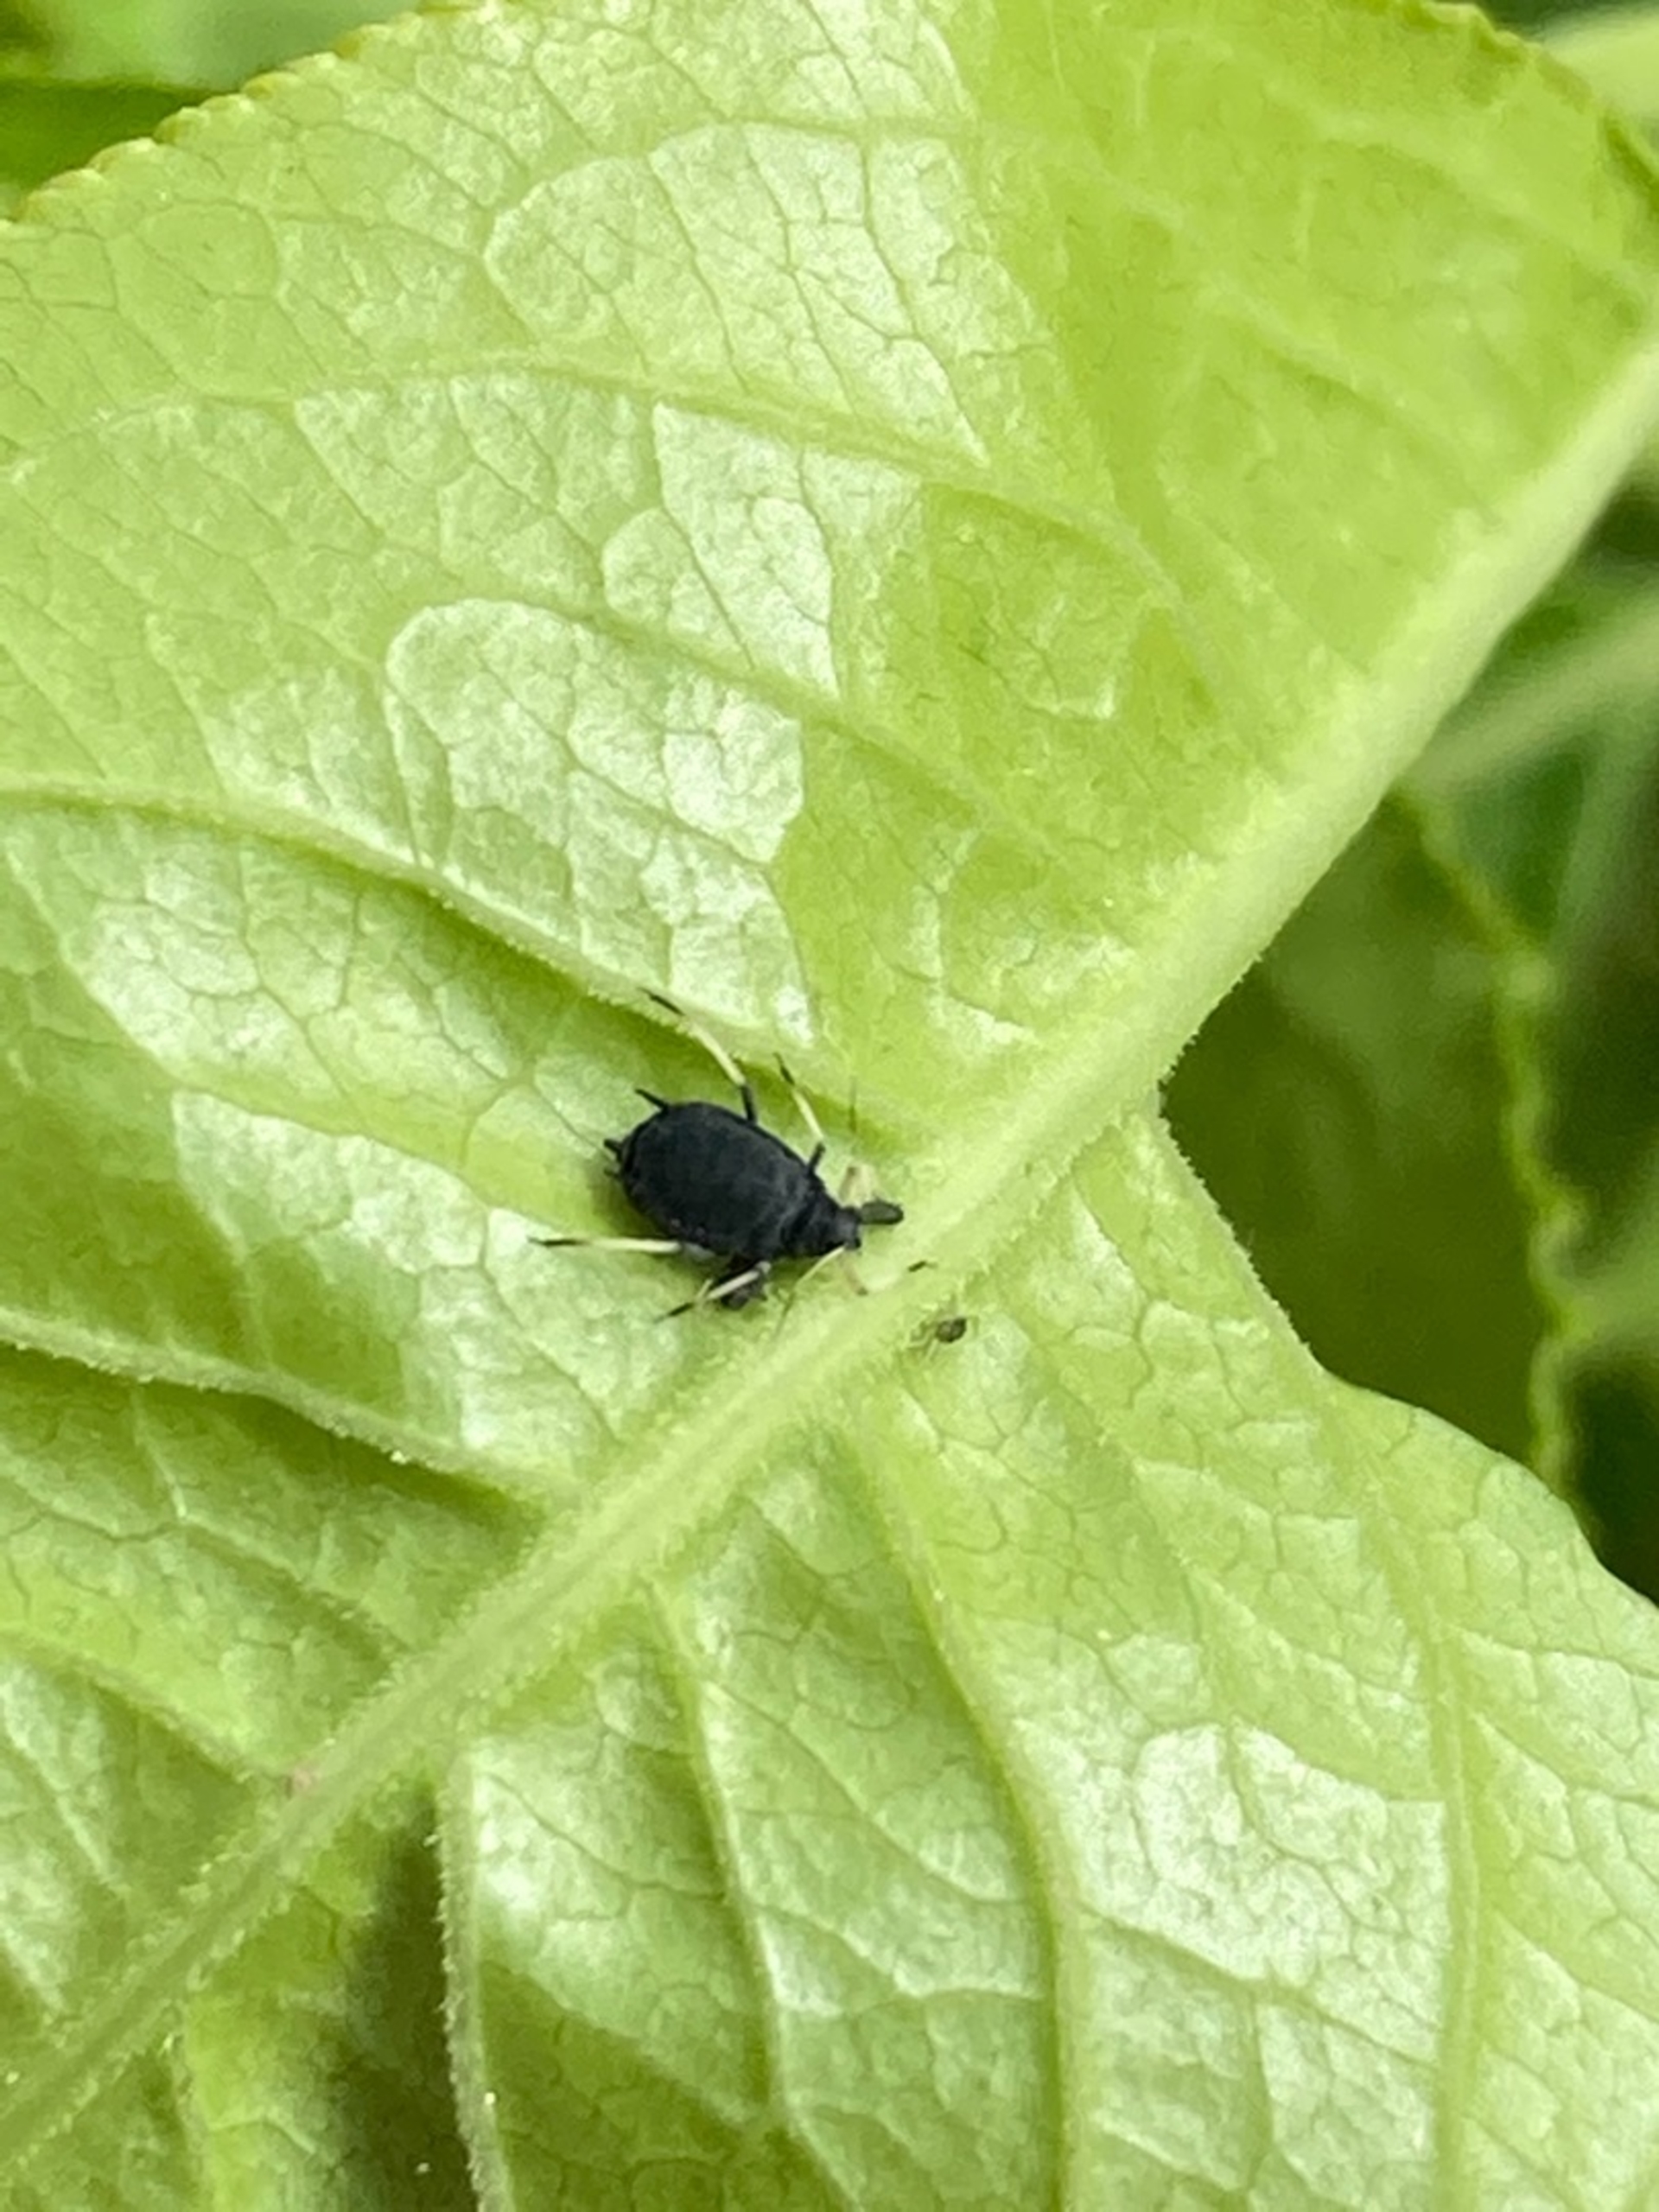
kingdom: Animalia
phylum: Arthropoda
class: Insecta
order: Hemiptera
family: Aphididae
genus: Aphis
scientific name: Aphis fabae
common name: Bedebladlus
